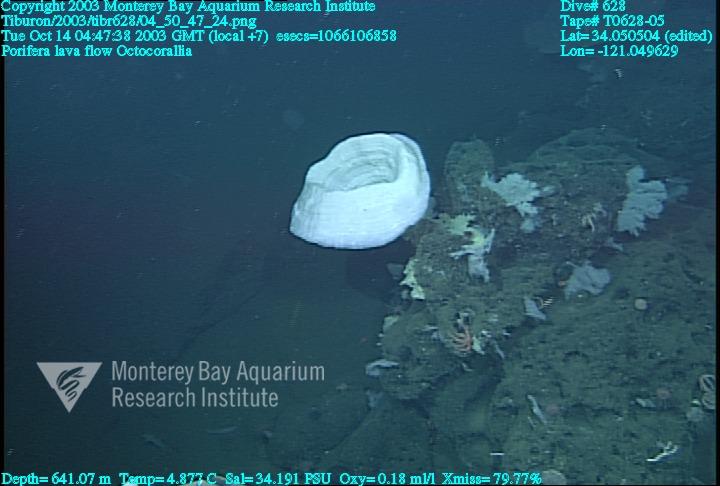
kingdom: Animalia
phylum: Porifera
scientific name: Porifera
